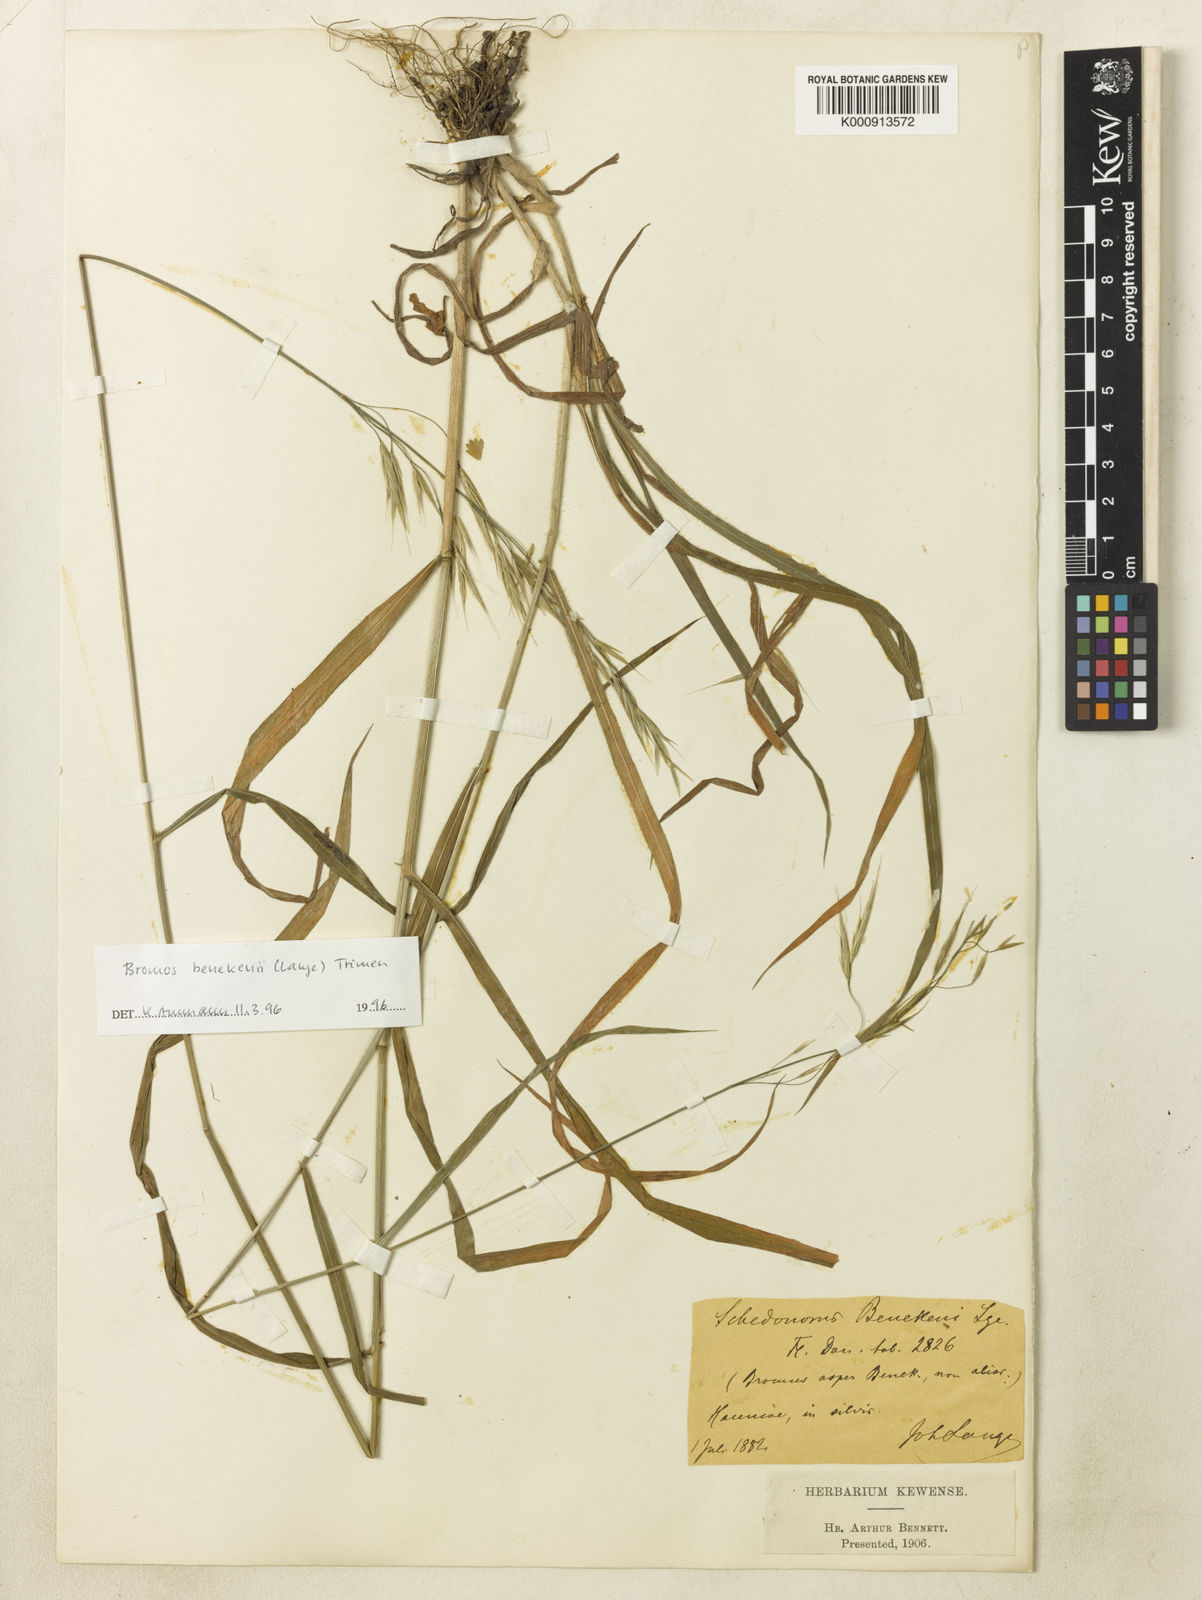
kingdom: Plantae
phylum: Tracheophyta
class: Liliopsida
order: Poales
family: Poaceae
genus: Bromus
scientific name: Bromus benekenii
